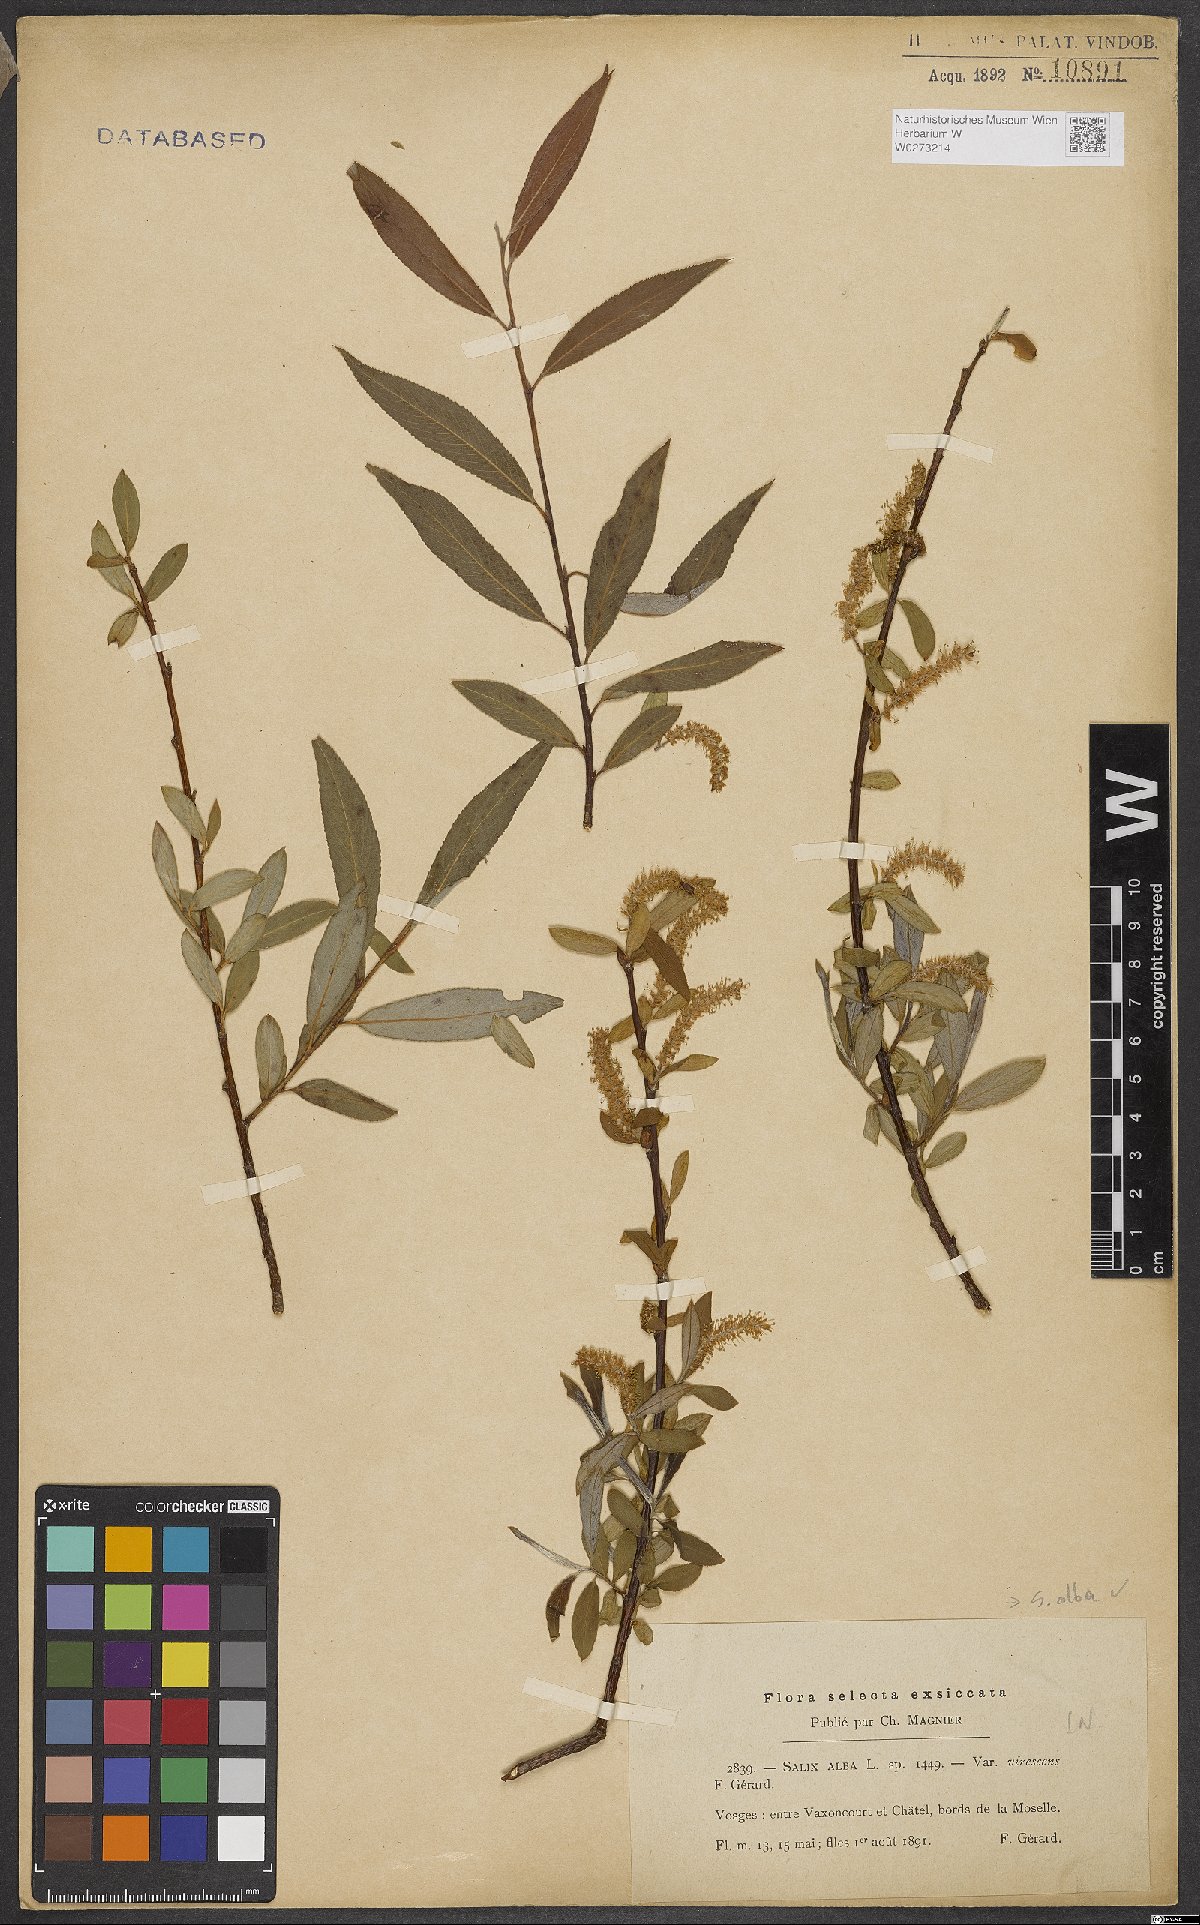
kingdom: Plantae
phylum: Tracheophyta
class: Magnoliopsida
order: Malpighiales
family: Salicaceae
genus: Salix
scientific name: Salix alba
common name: White willow
